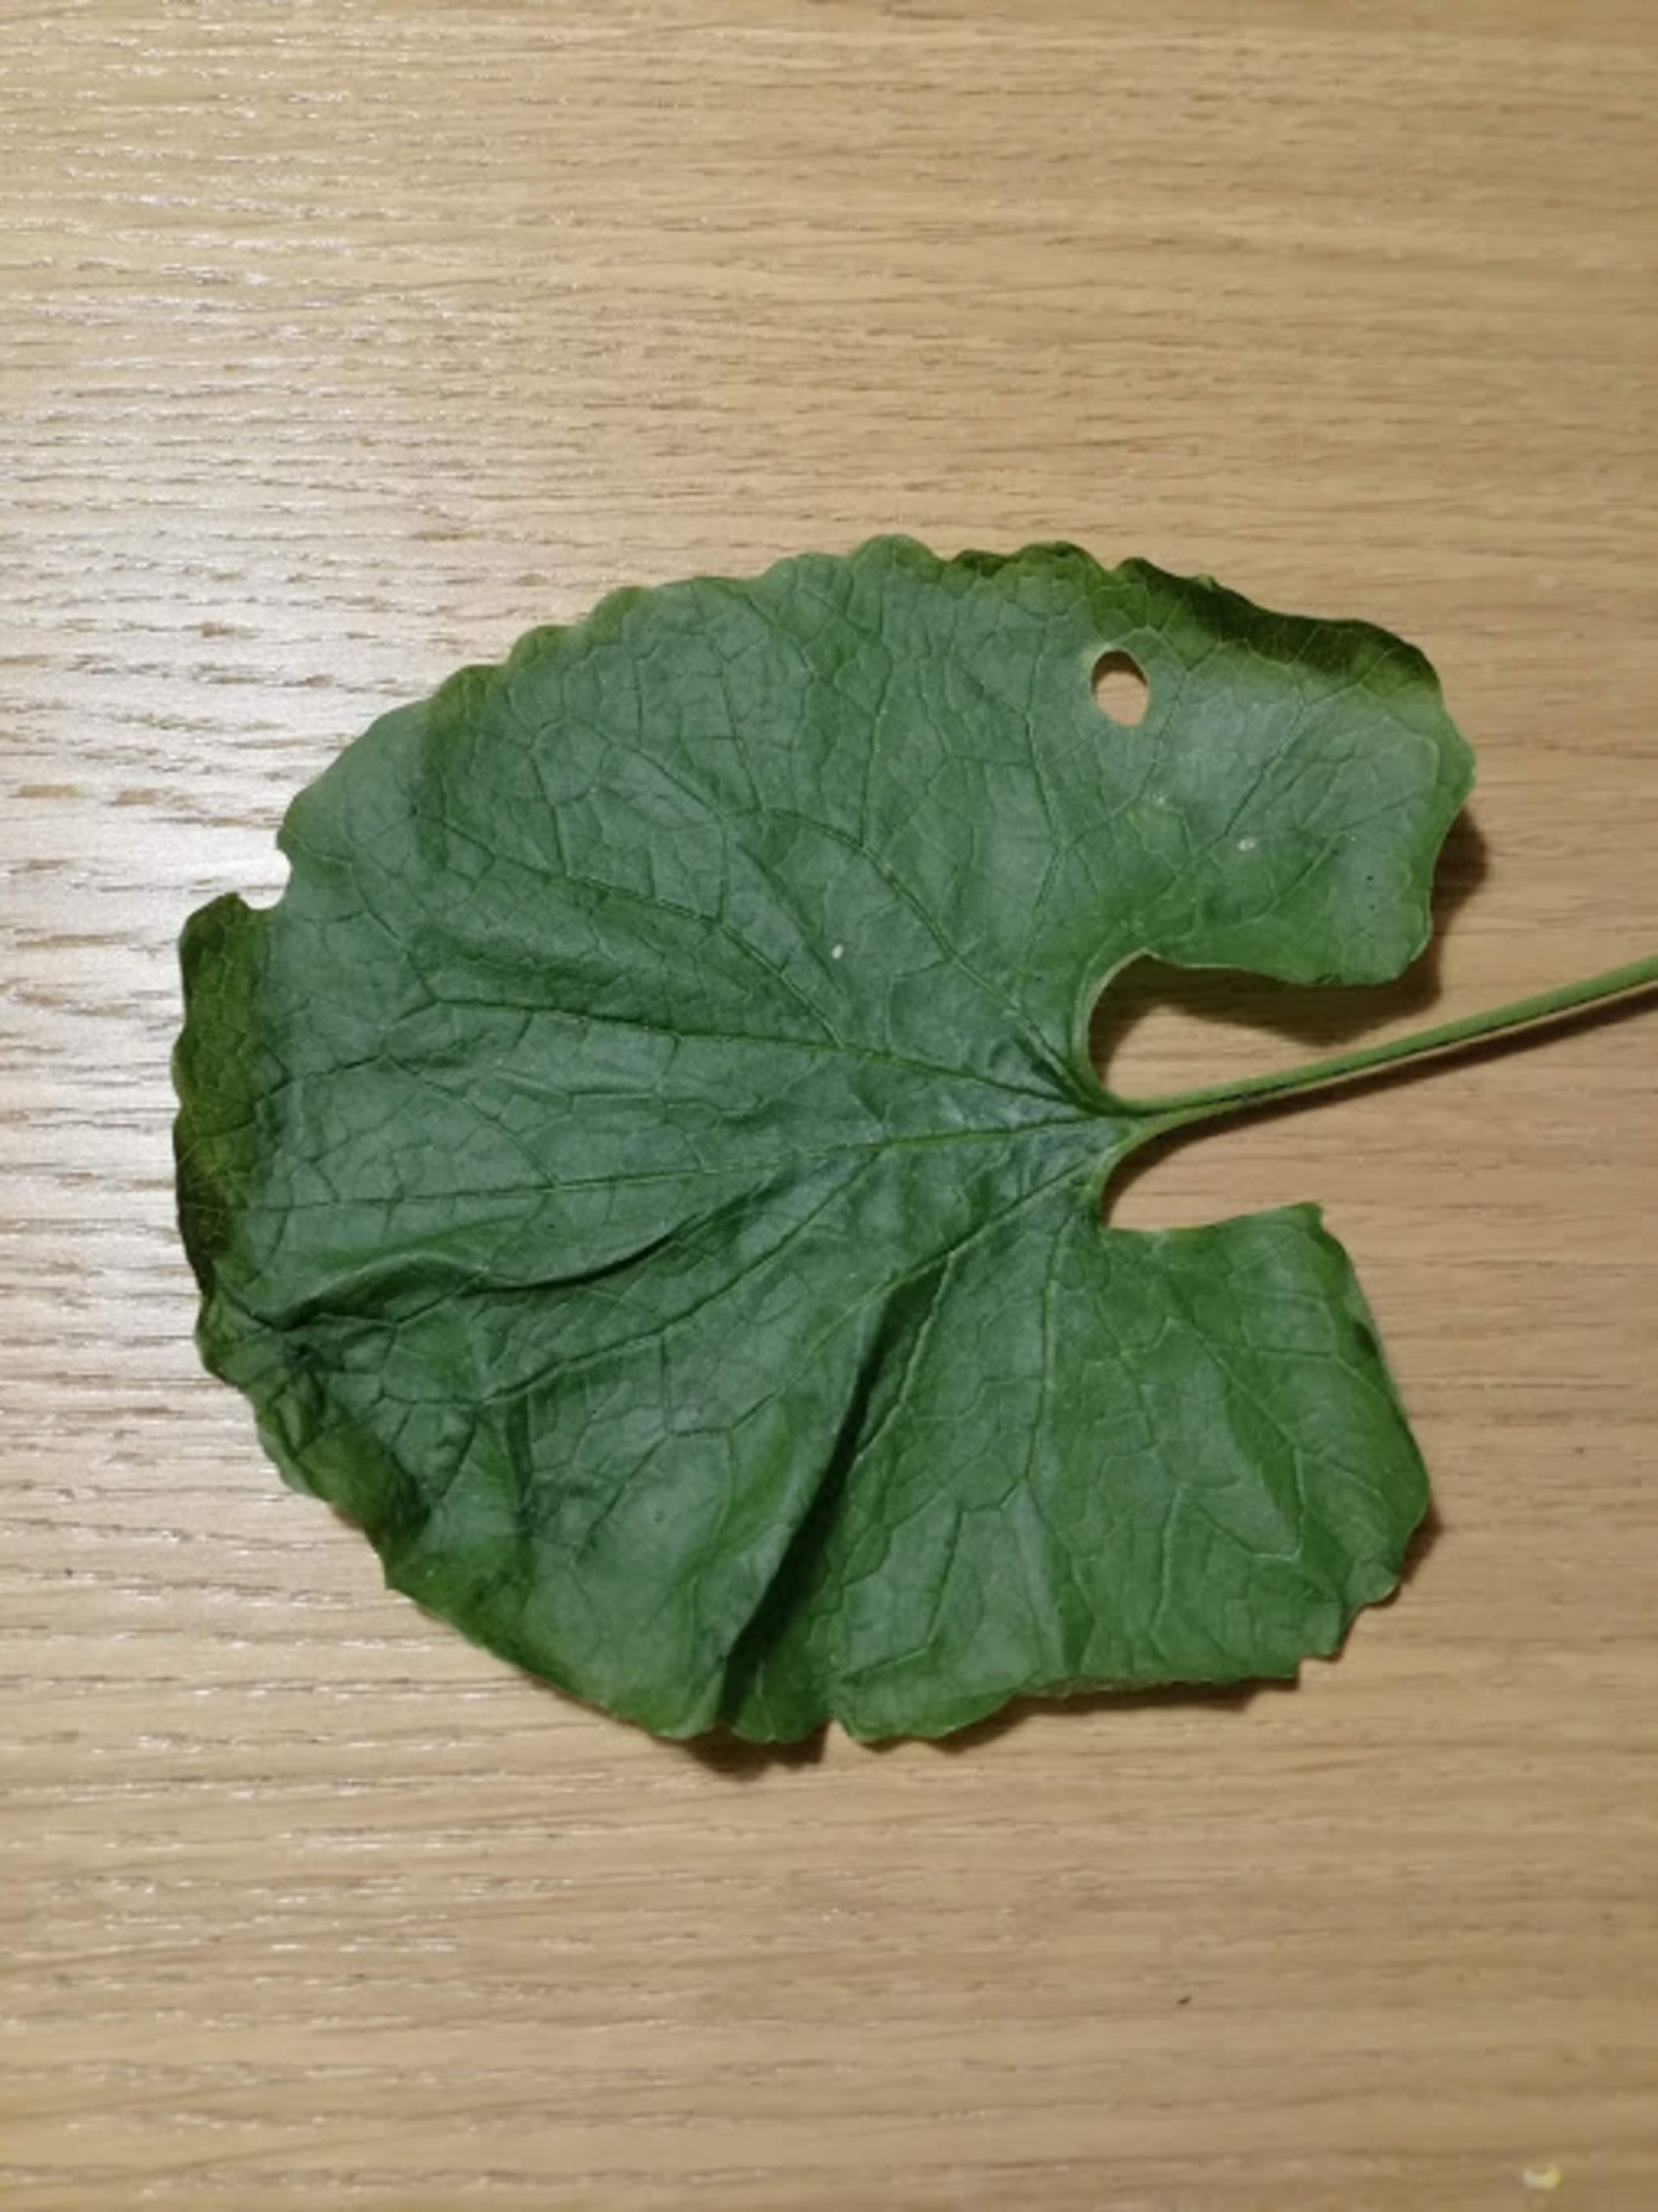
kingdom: Plantae
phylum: Tracheophyta
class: Magnoliopsida
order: Brassicales
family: Brassicaceae
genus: Alliaria
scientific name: Alliaria petiolata
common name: Løgkarse
